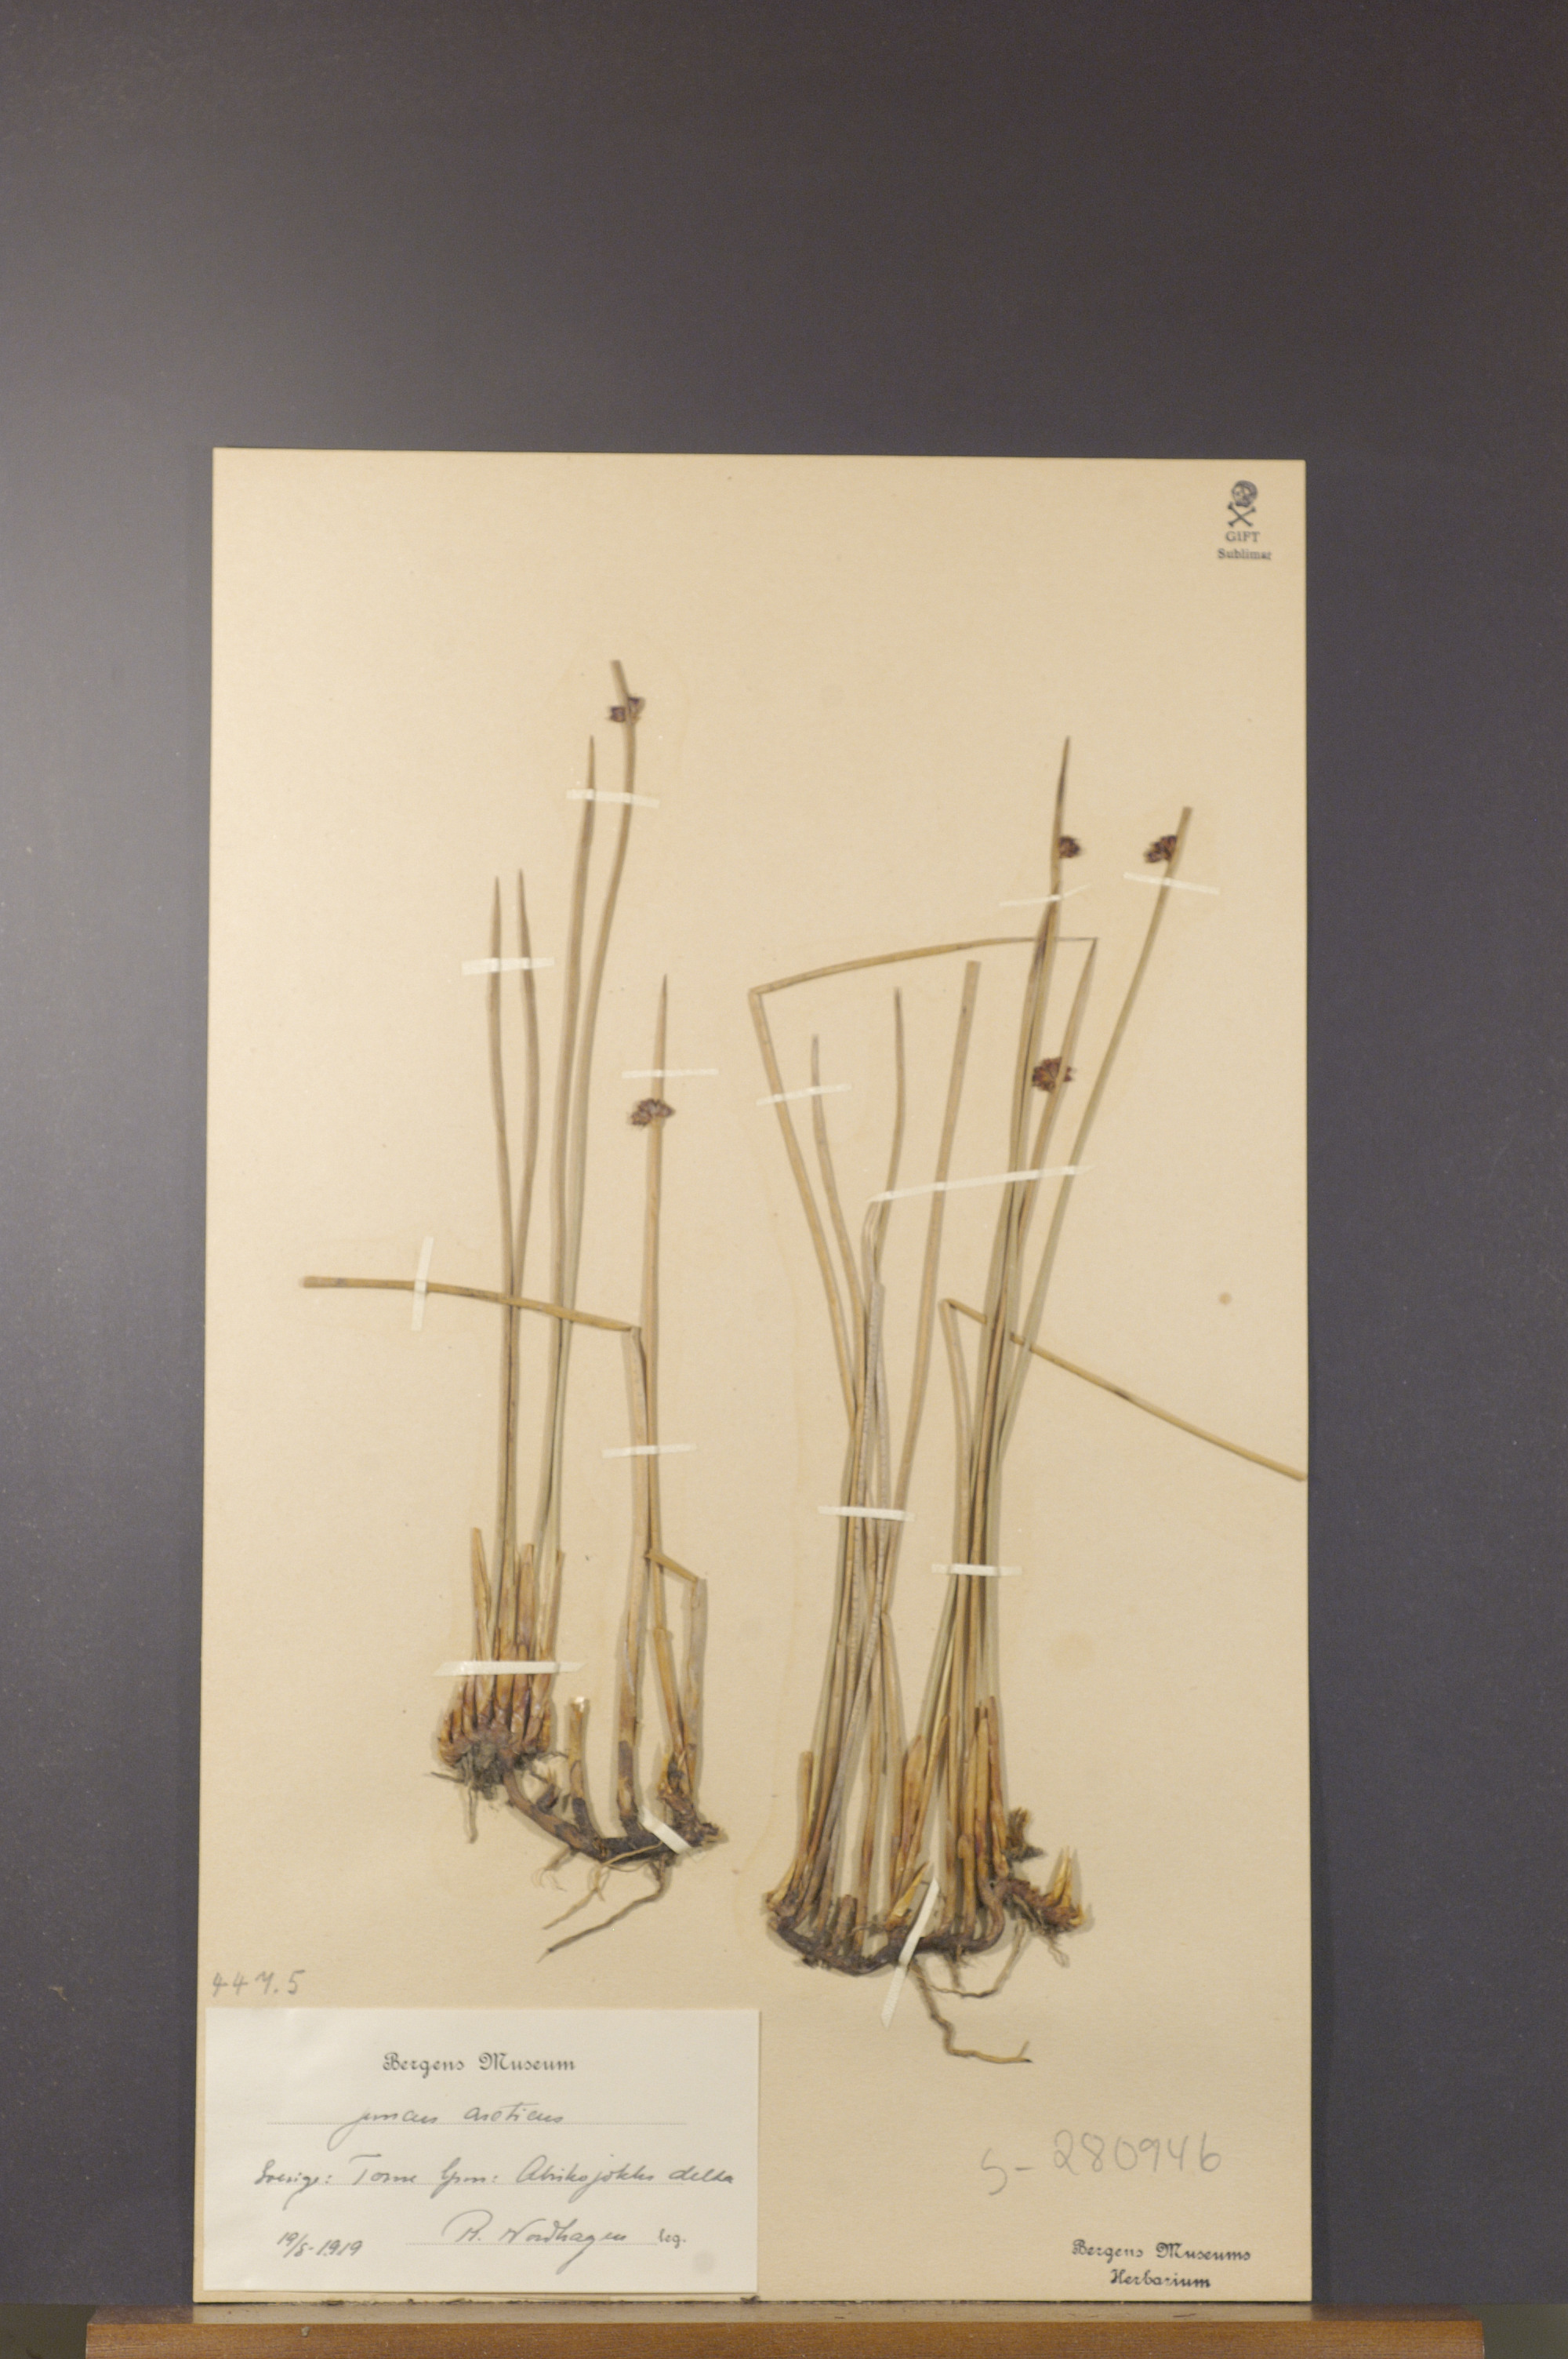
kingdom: Plantae
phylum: Tracheophyta
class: Liliopsida
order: Poales
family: Juncaceae
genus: Juncus
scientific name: Juncus arcticus
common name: Arctic rush
